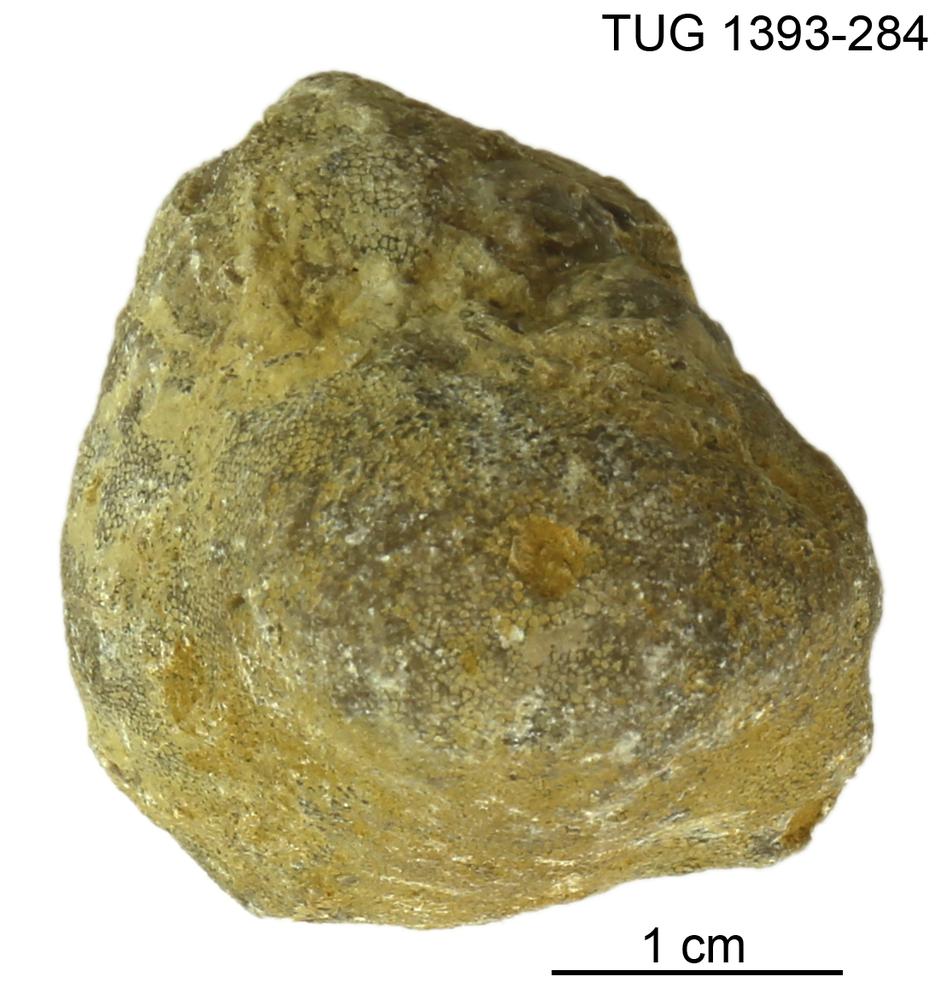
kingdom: Animalia
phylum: Bryozoa
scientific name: Bryozoa
